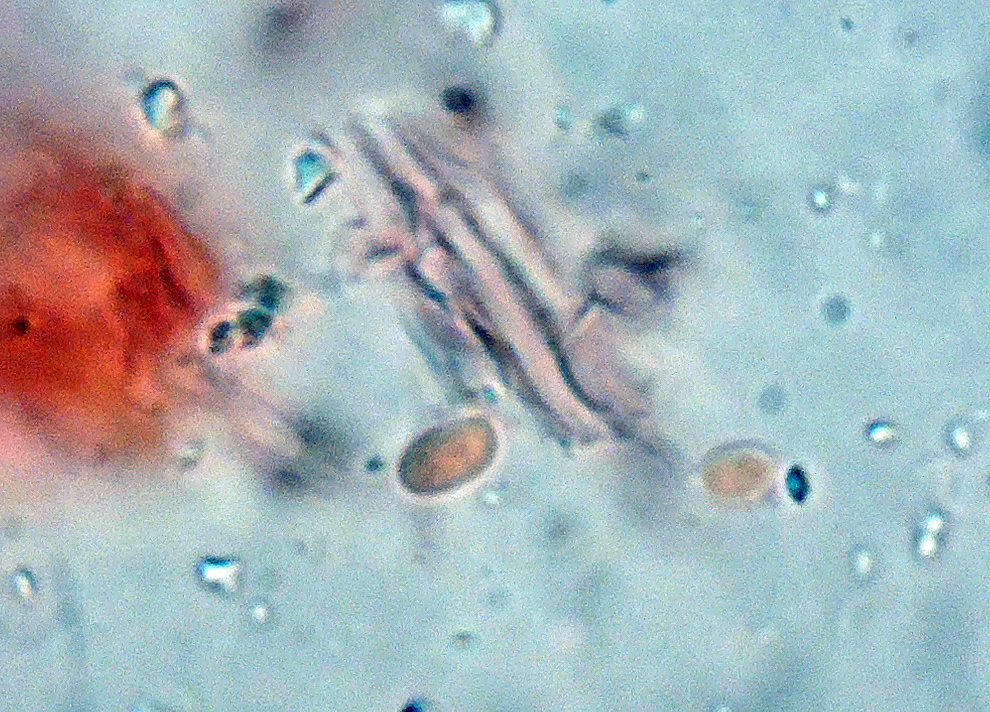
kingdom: Fungi
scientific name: Fungi
